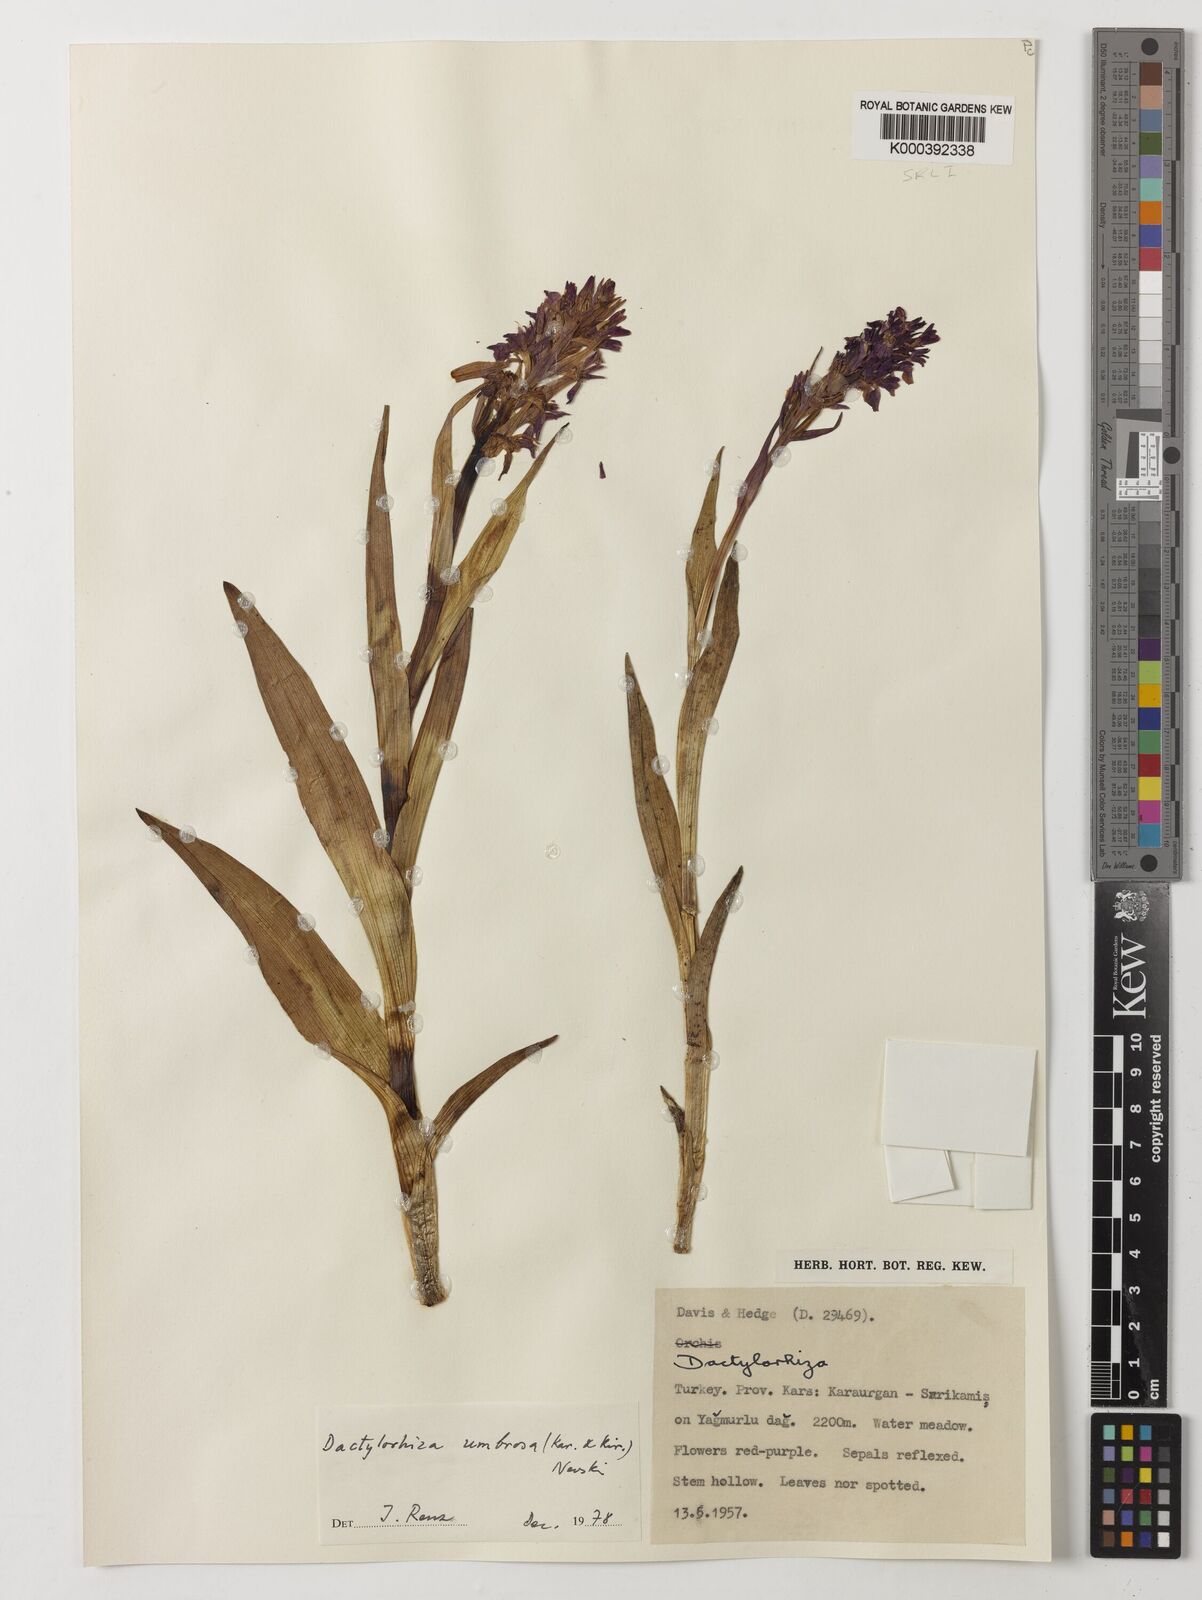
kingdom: Plantae
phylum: Tracheophyta
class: Liliopsida
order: Asparagales
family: Orchidaceae
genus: Dactylorhiza
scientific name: Dactylorhiza
